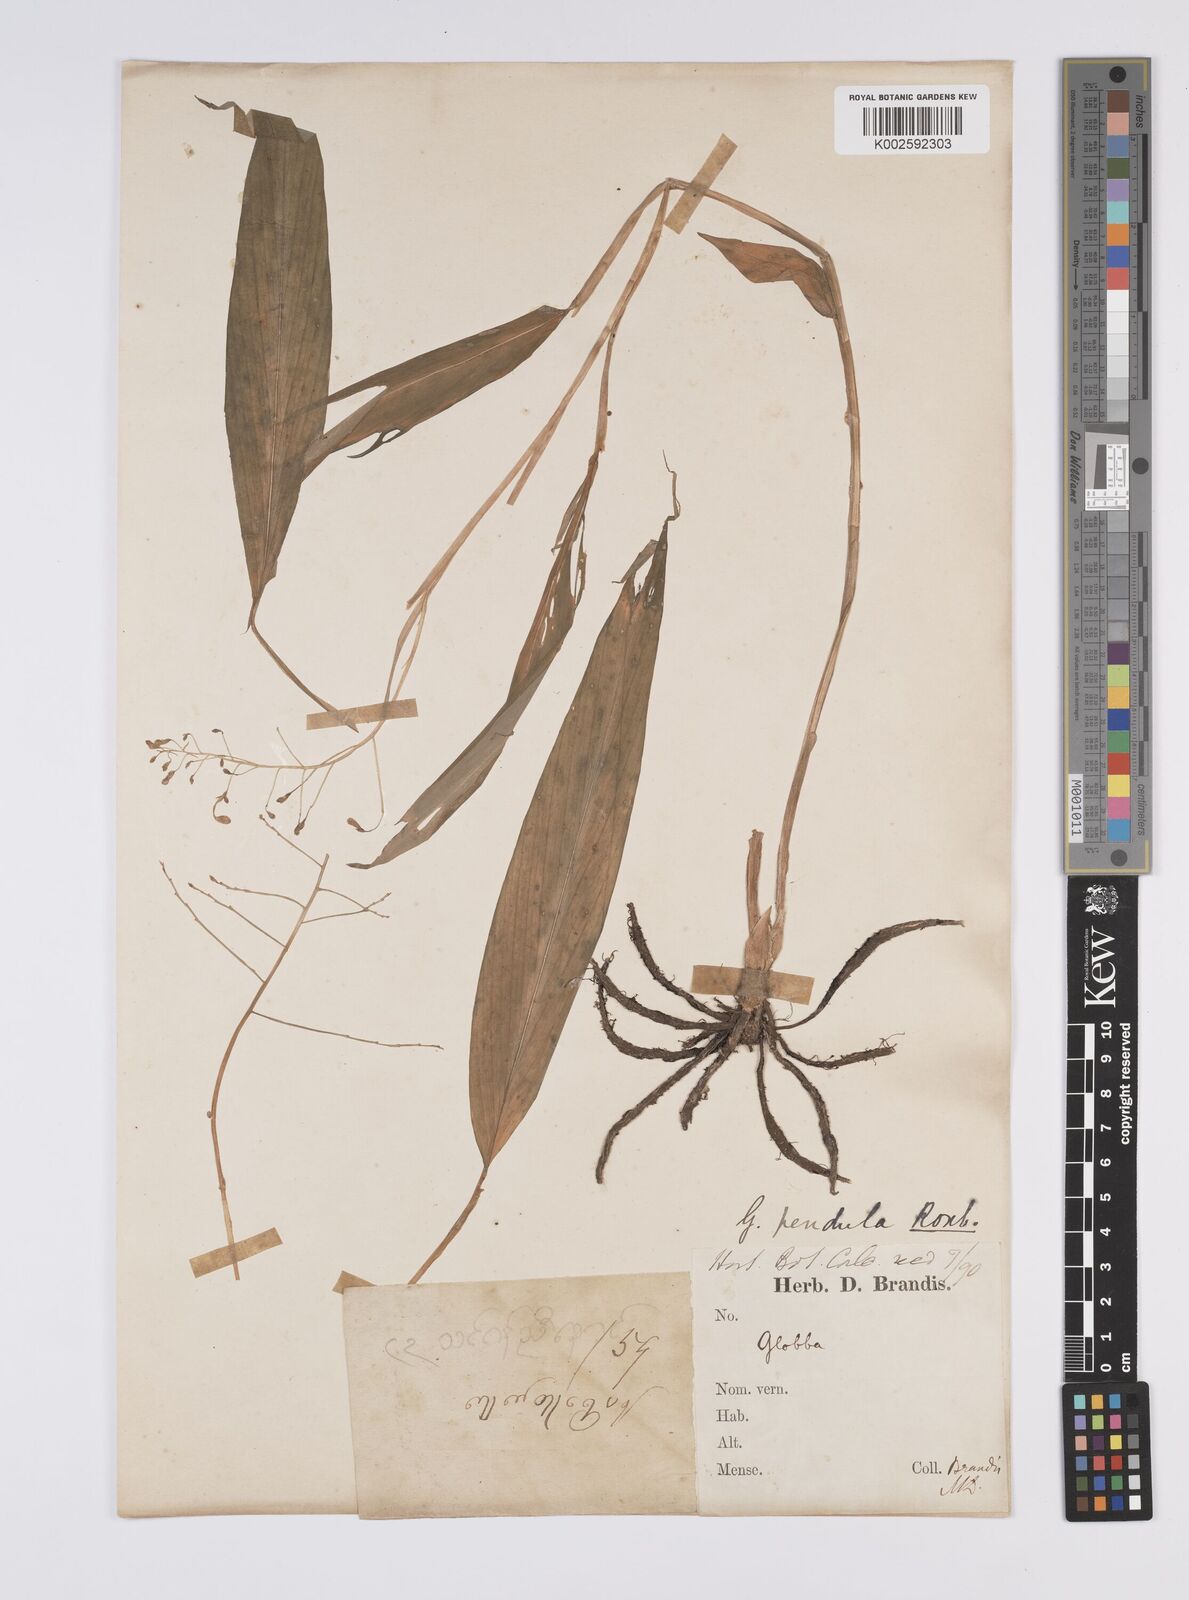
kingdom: Plantae
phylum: Tracheophyta
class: Liliopsida
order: Zingiberales
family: Zingiberaceae
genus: Globba
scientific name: Globba pendula
